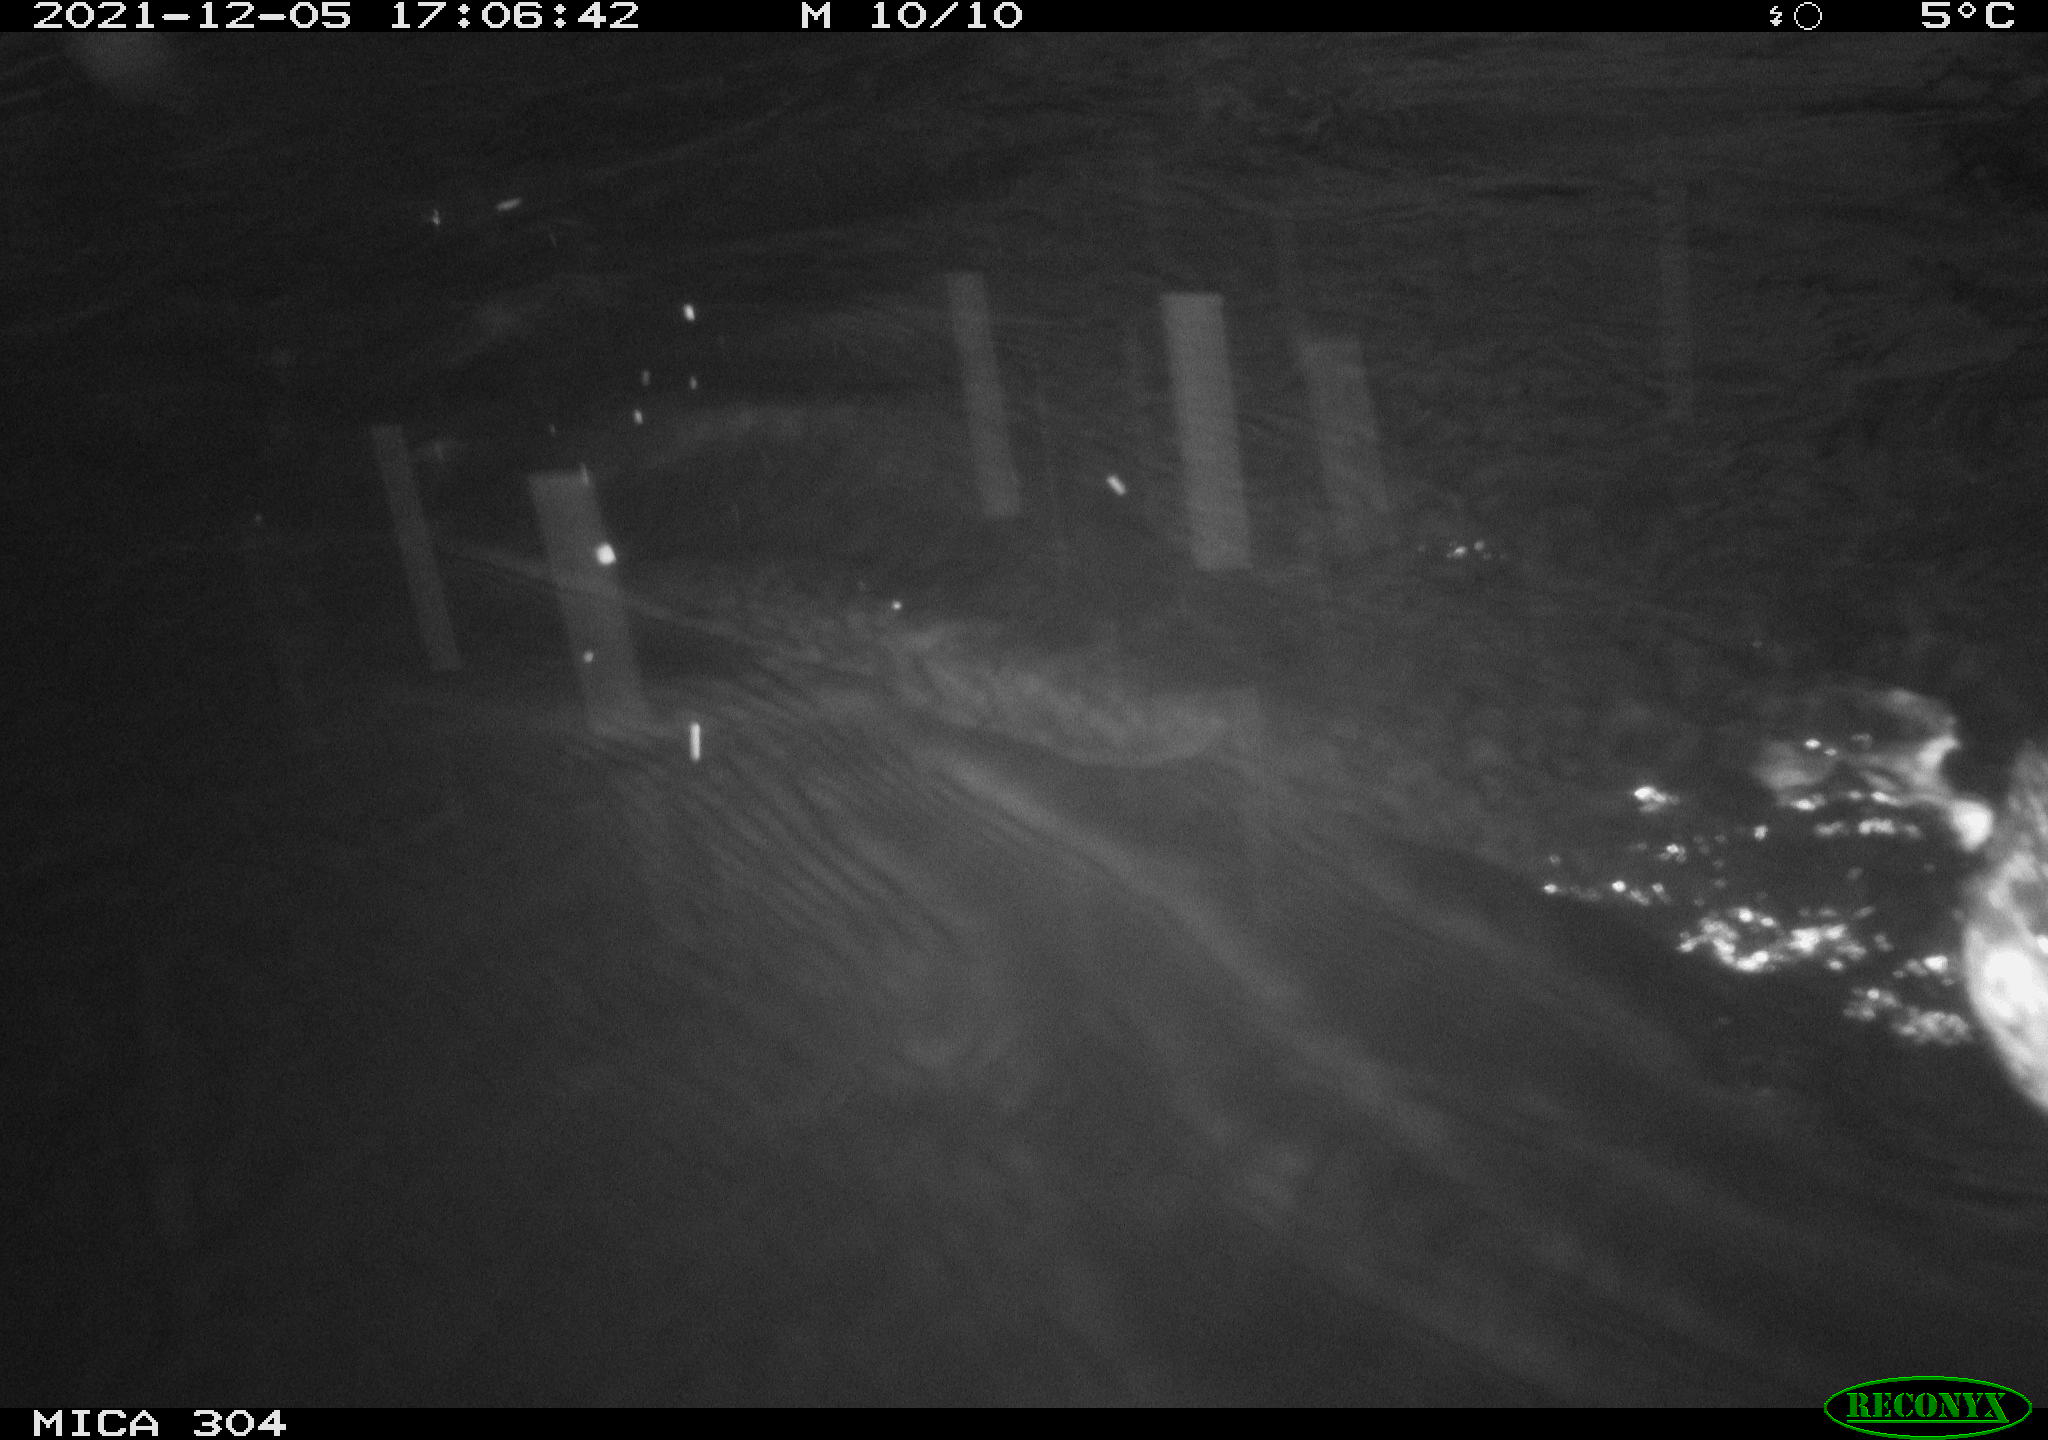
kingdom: Animalia
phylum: Chordata
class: Aves
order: Gruiformes
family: Rallidae
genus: Fulica
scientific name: Fulica atra
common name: Eurasian coot
